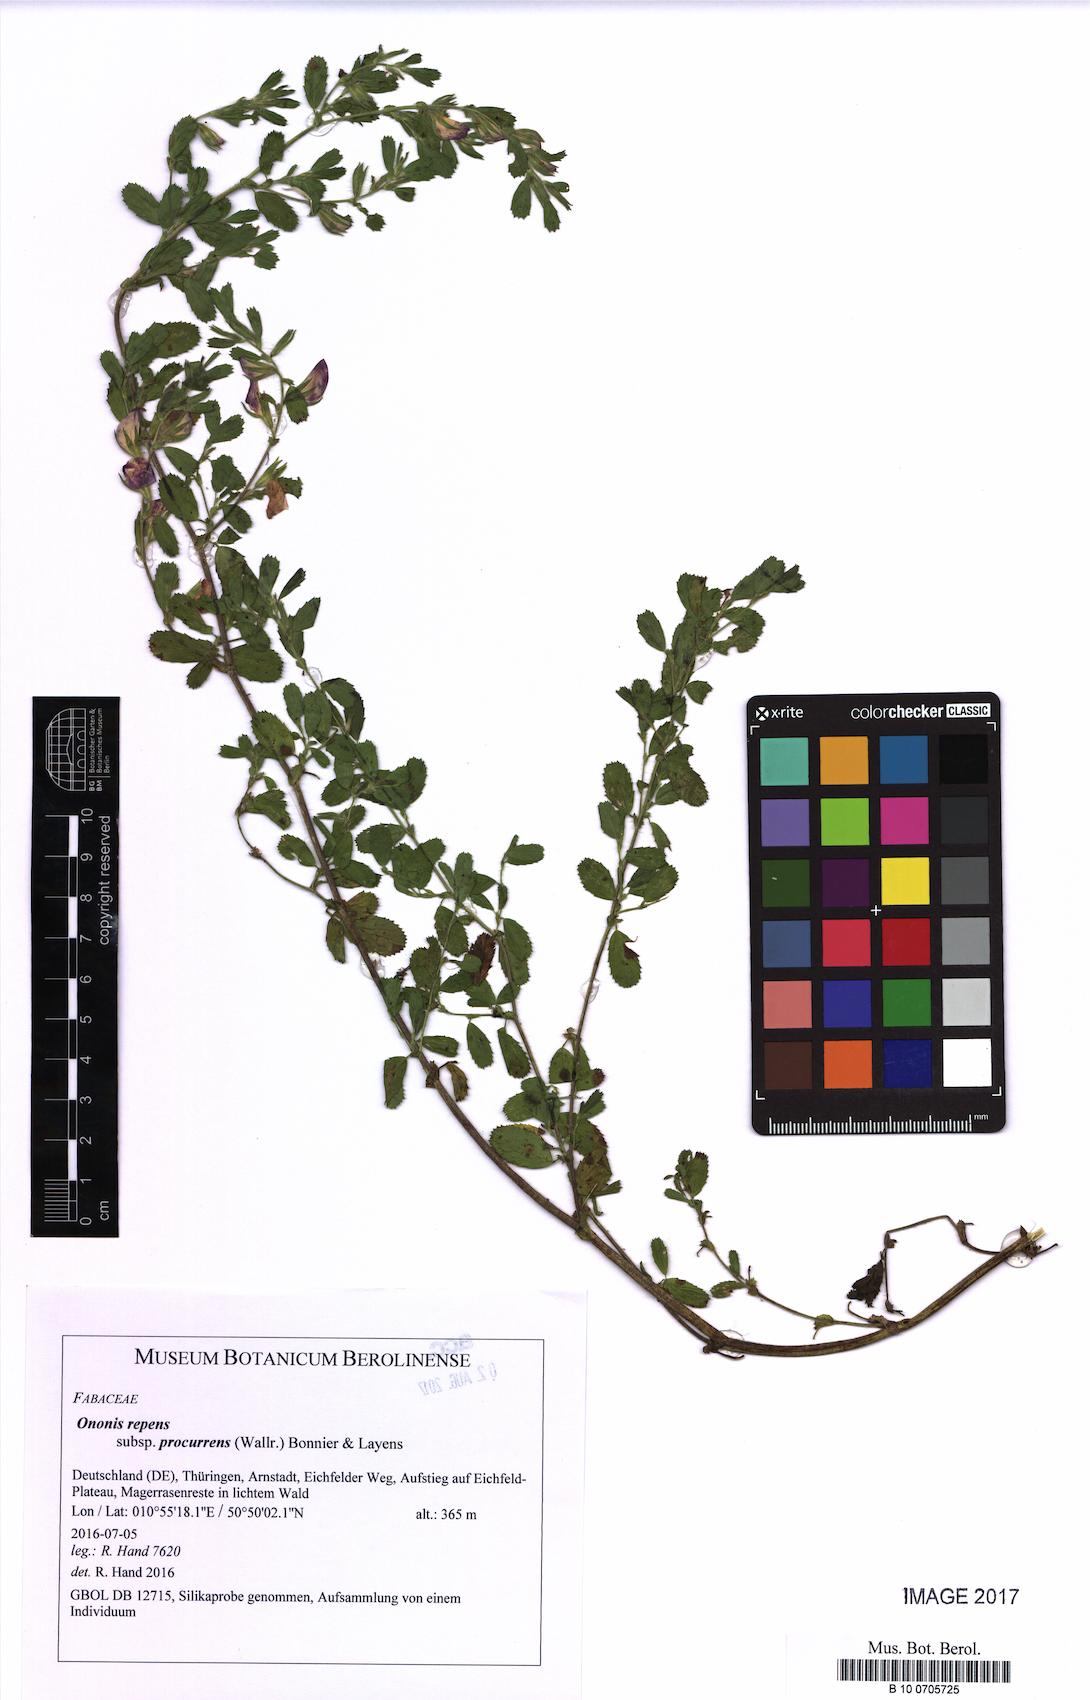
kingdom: Plantae
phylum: Tracheophyta
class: Magnoliopsida
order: Fabales
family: Fabaceae
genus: Ononis
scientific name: Ononis spinosa
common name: Spiny restharrow
